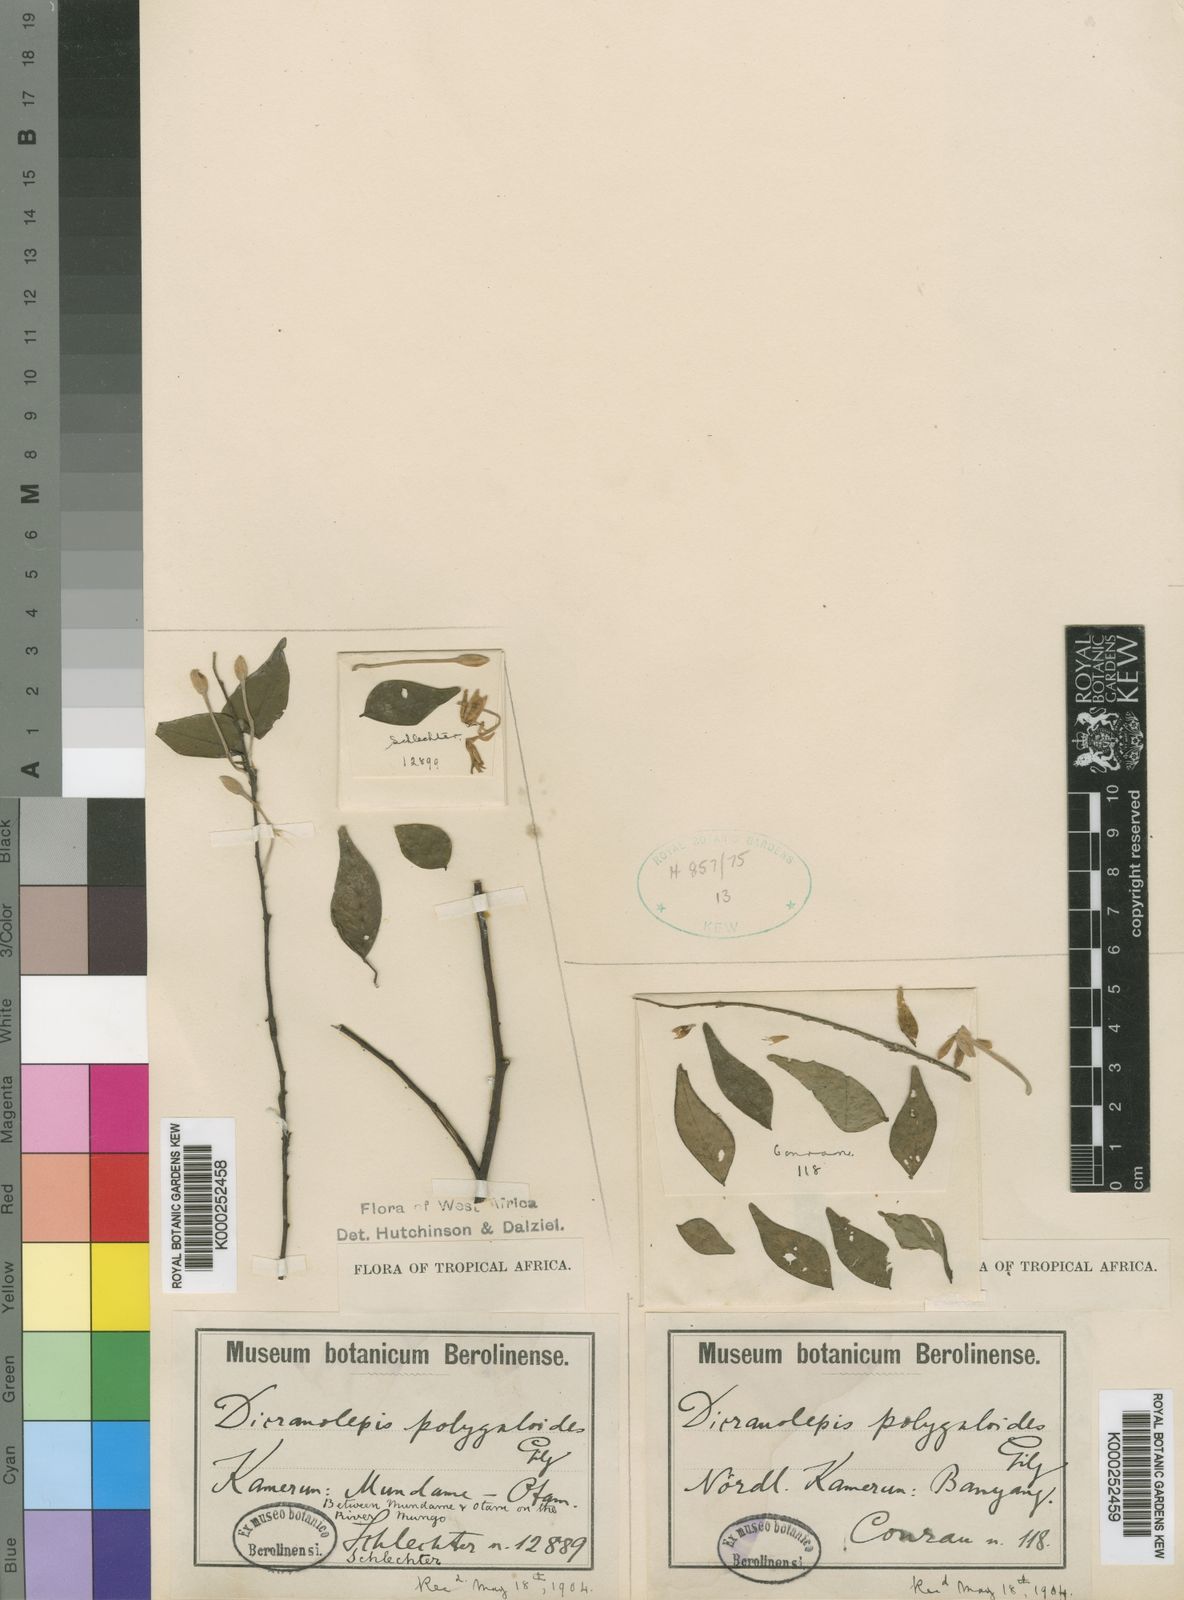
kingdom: Plantae
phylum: Tracheophyta
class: Magnoliopsida
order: Malvales
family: Thymelaeaceae
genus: Dicranolepis
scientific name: Dicranolepis
